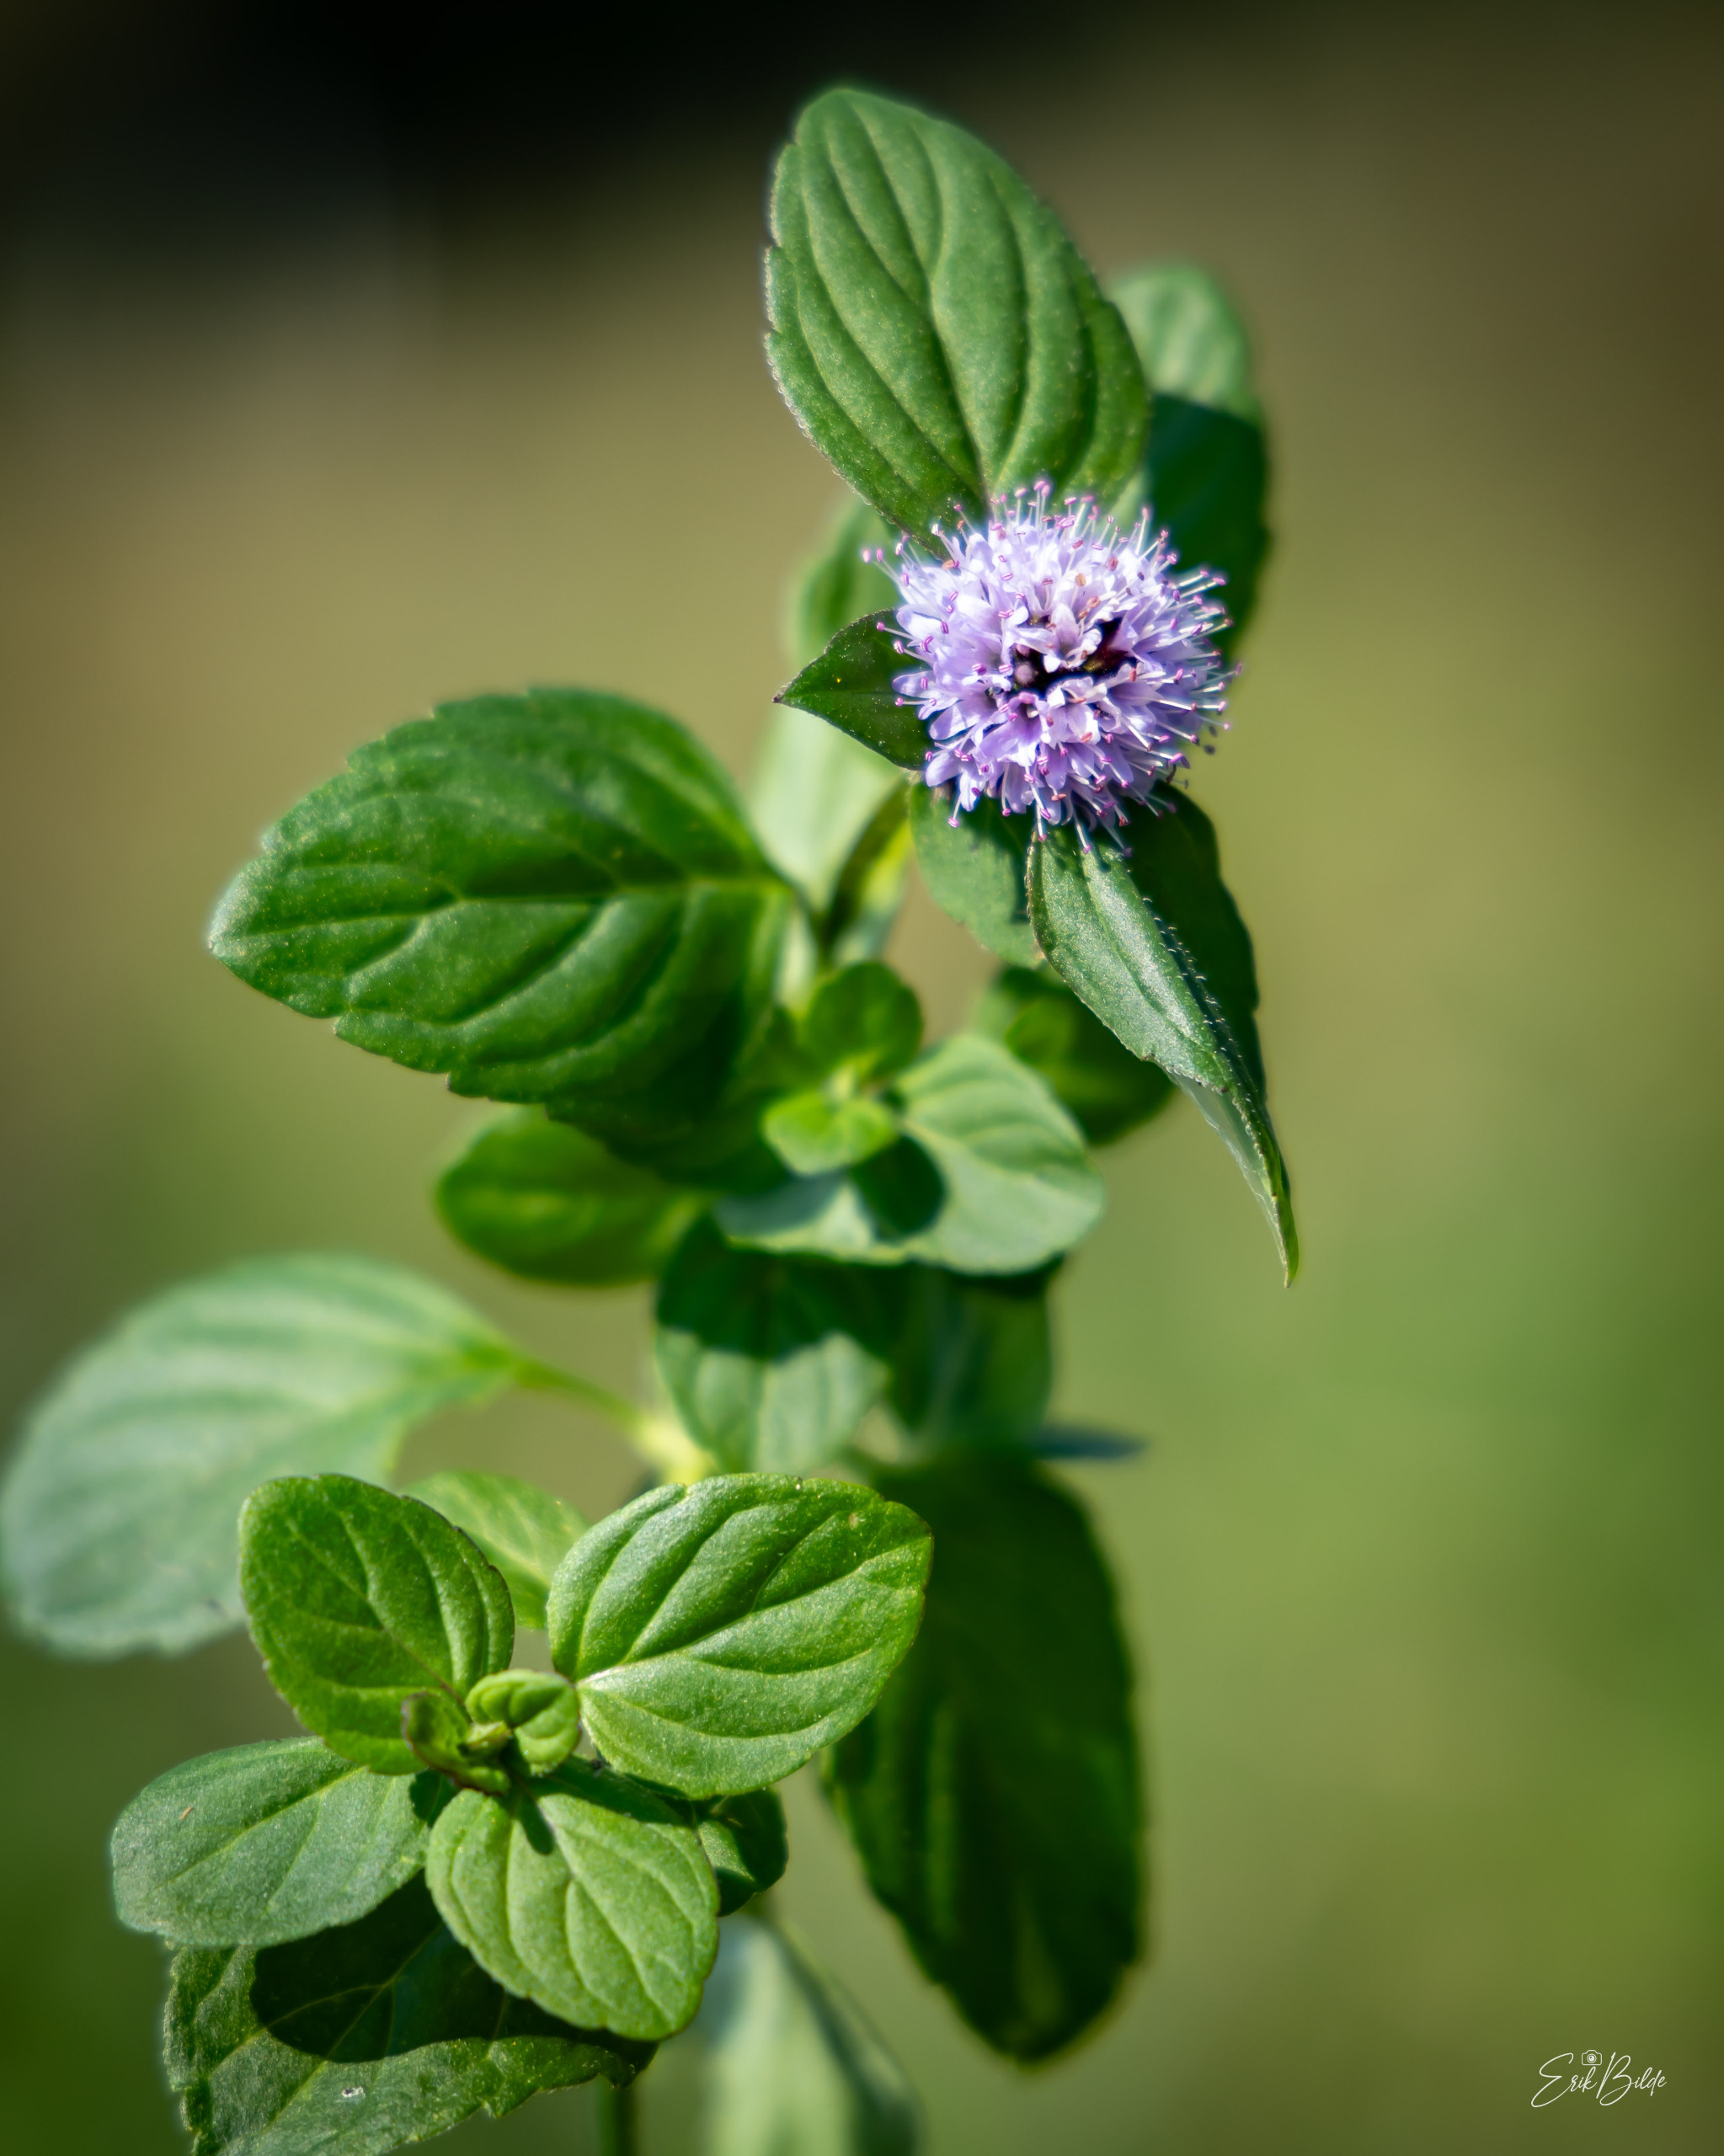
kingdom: Plantae
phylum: Tracheophyta
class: Magnoliopsida
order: Lamiales
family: Lamiaceae
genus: Mentha
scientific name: Mentha aquatica
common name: Vand-mynte
